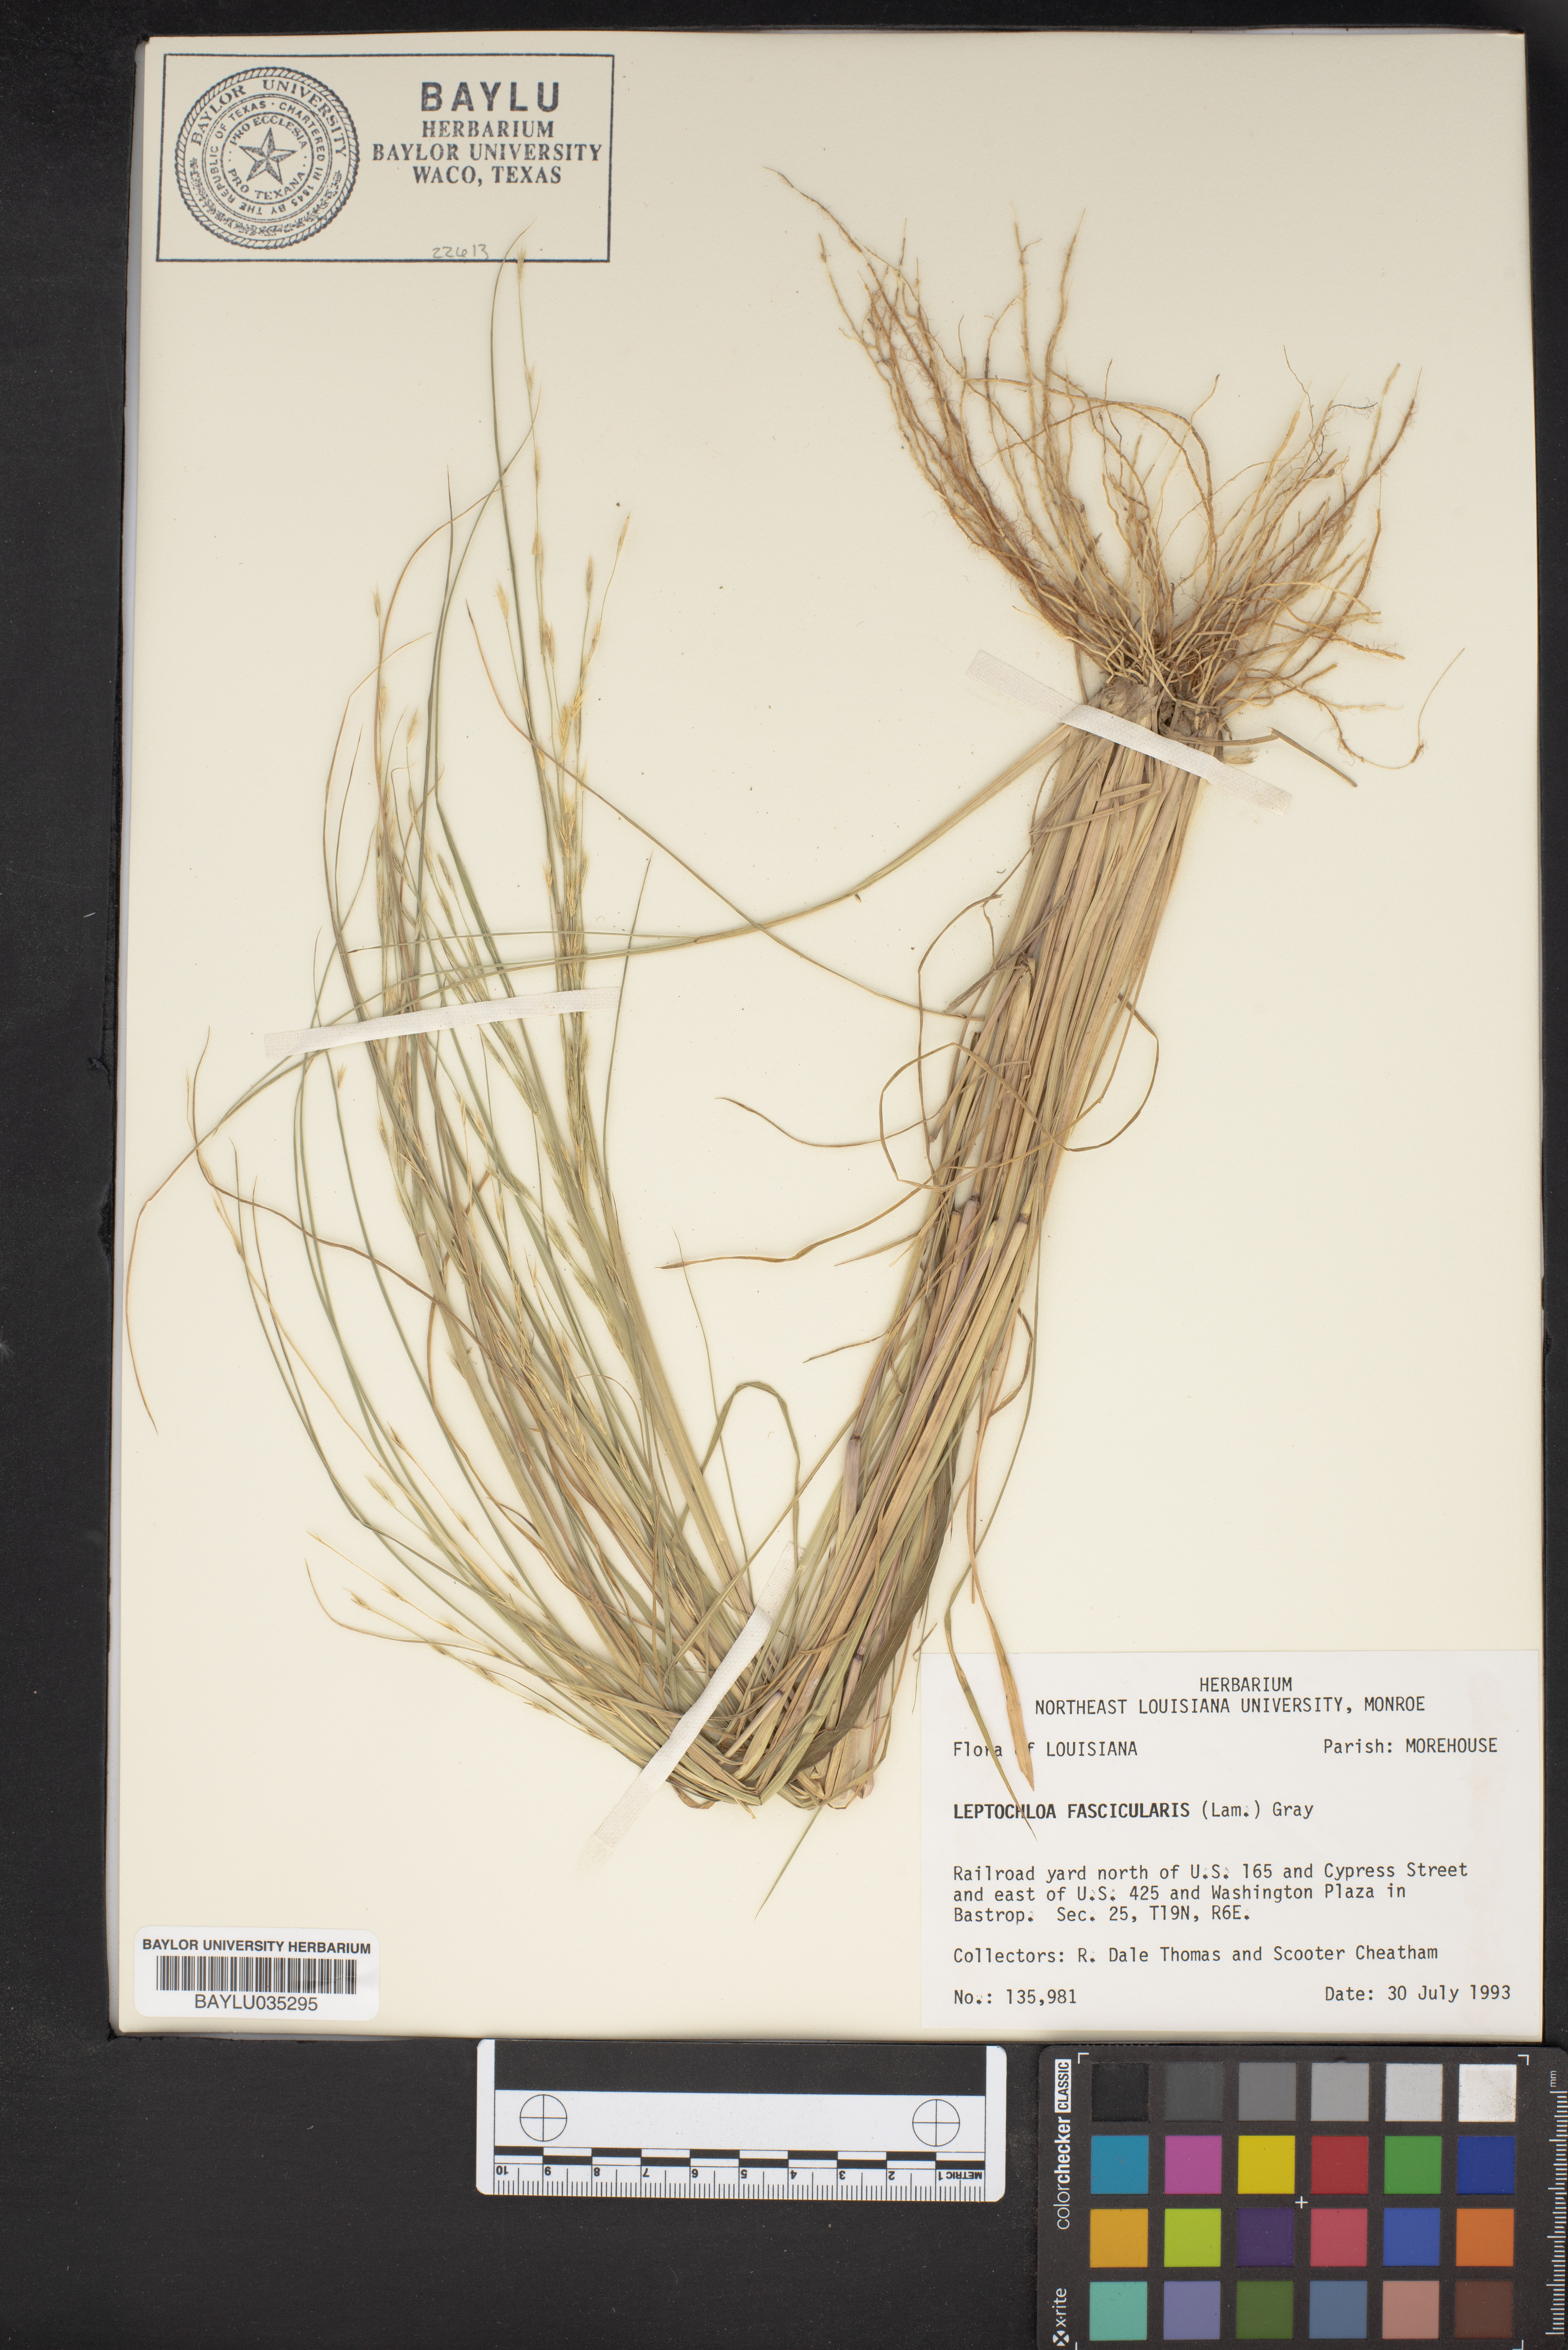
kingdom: Plantae
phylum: Tracheophyta
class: Liliopsida
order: Poales
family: Poaceae
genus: Diplachne
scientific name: Diplachne fusca
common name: Brown beetle grass
